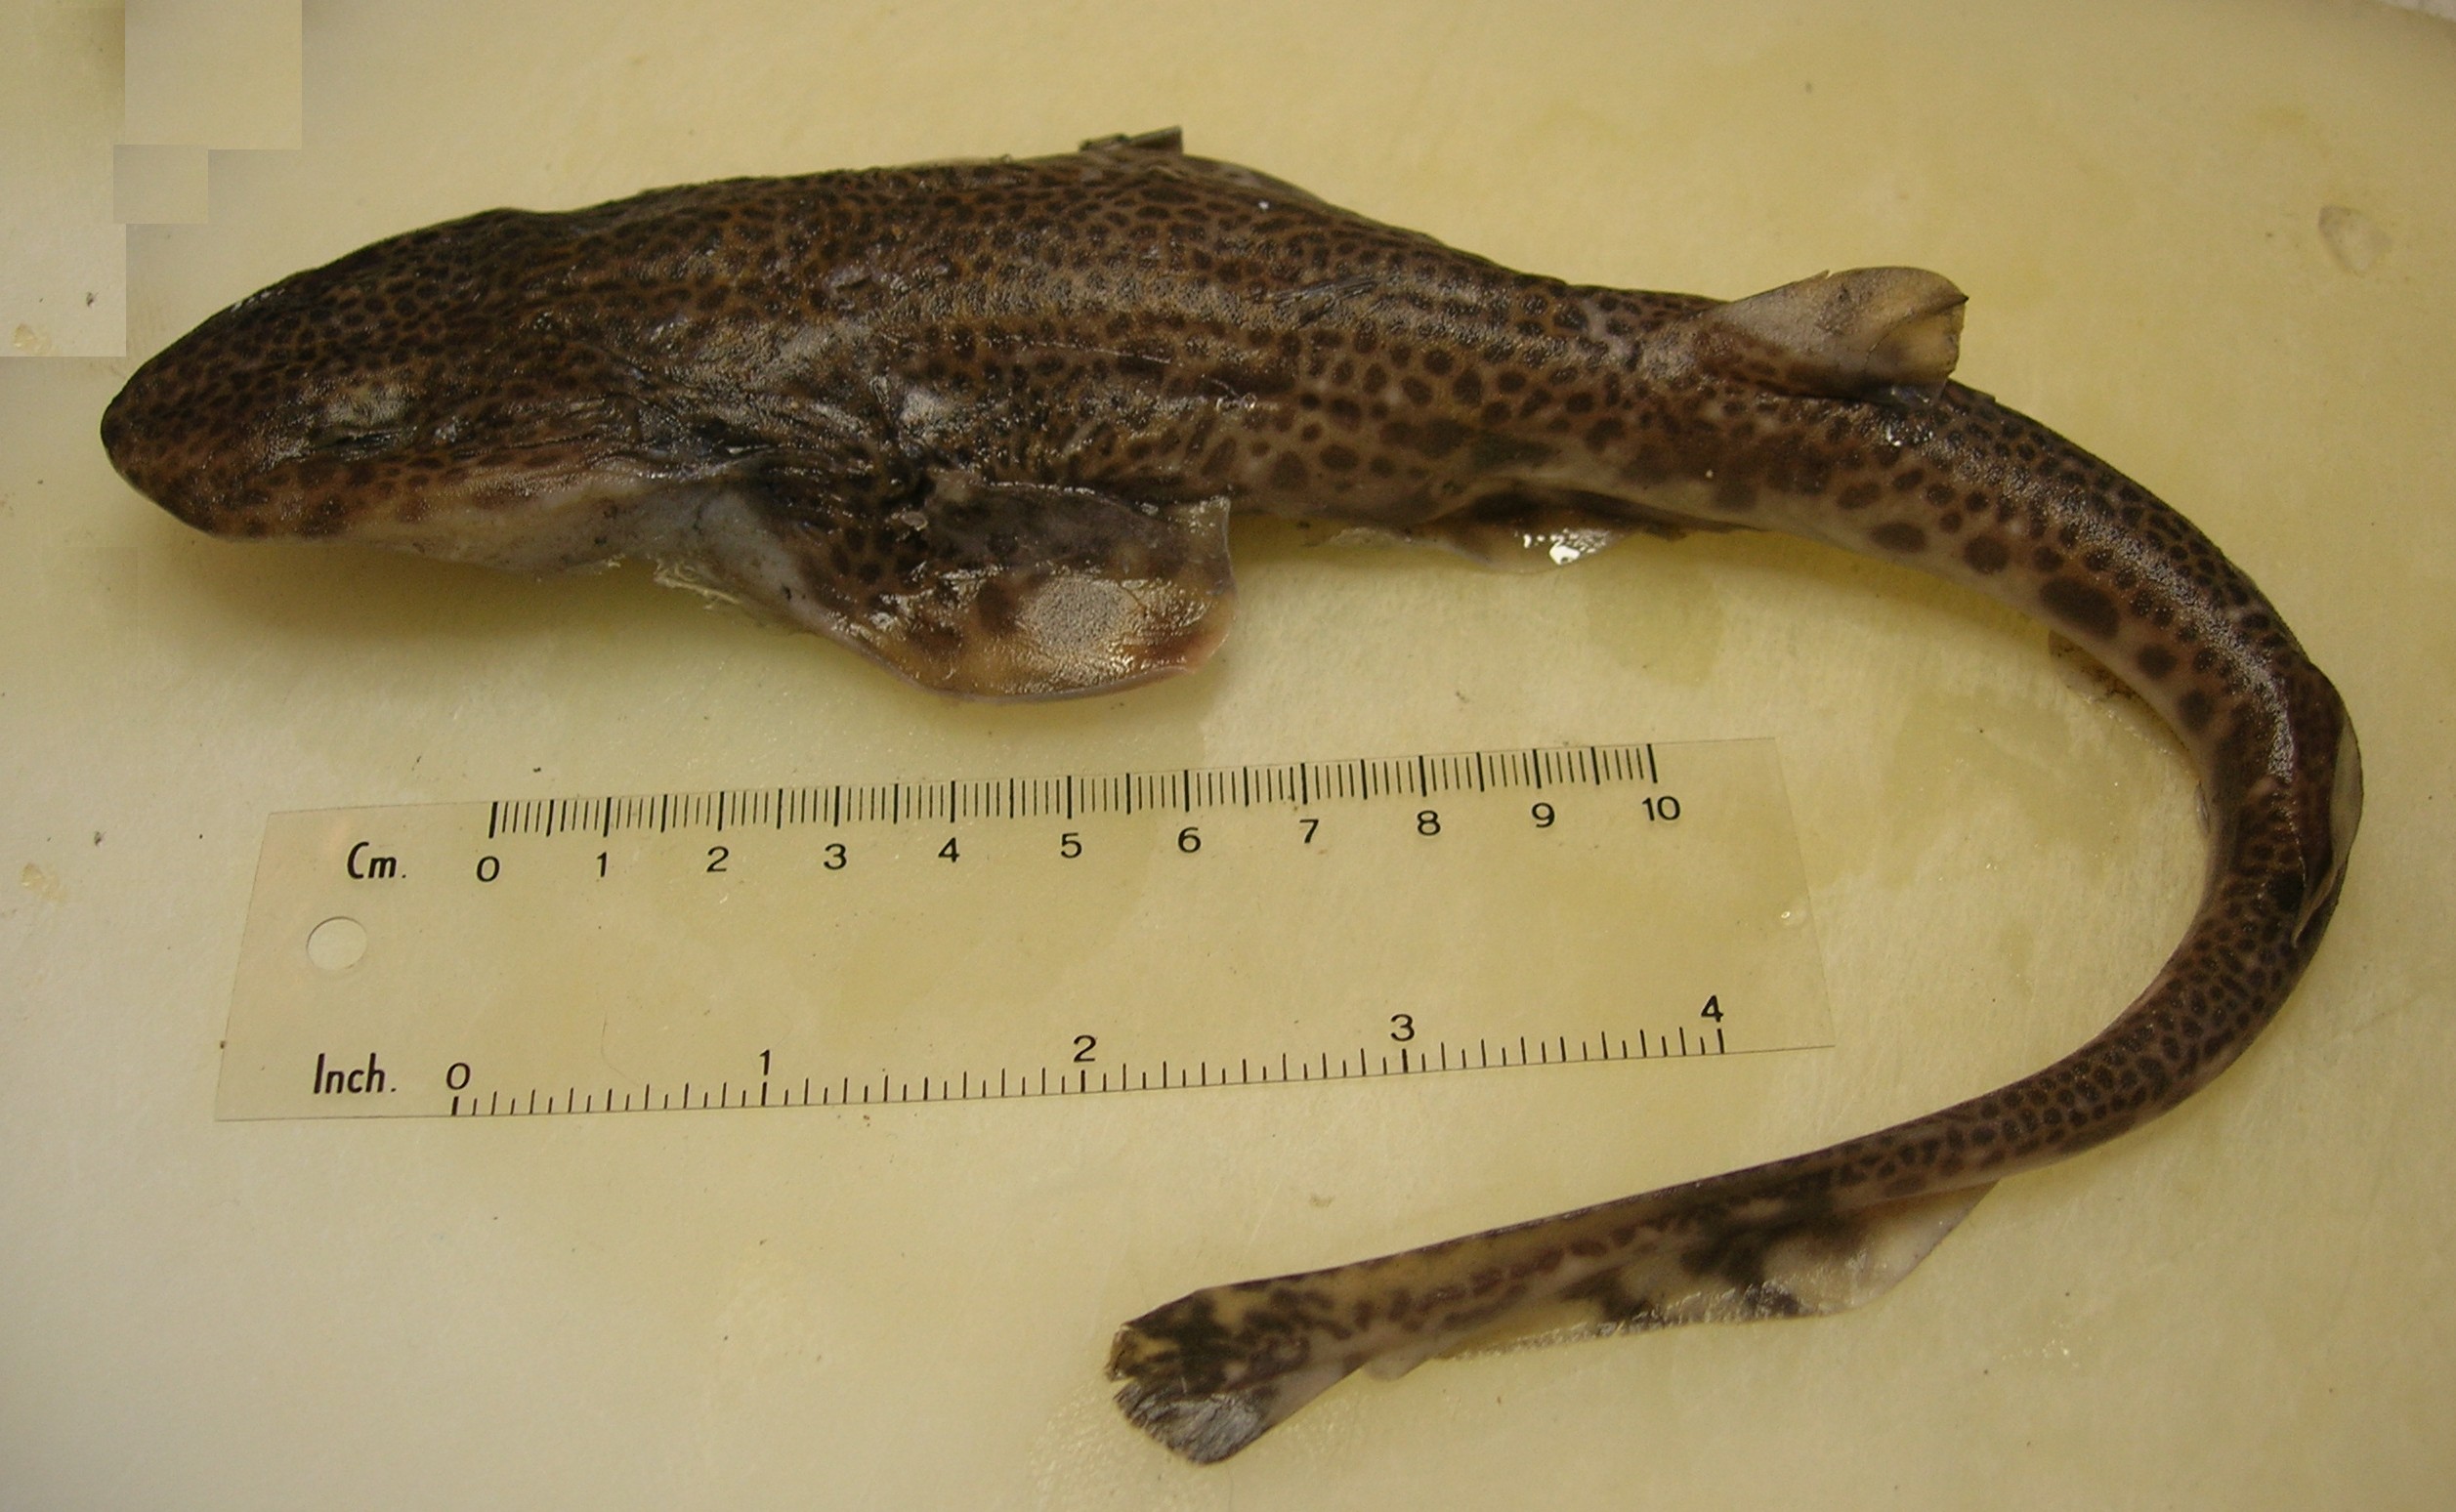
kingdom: Animalia
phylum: Chordata
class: Elasmobranchii
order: Carcharhiniformes
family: Scyliorhinidae
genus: Holohalaelurus
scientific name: Holohalaelurus punctatus
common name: African spotted catshark
